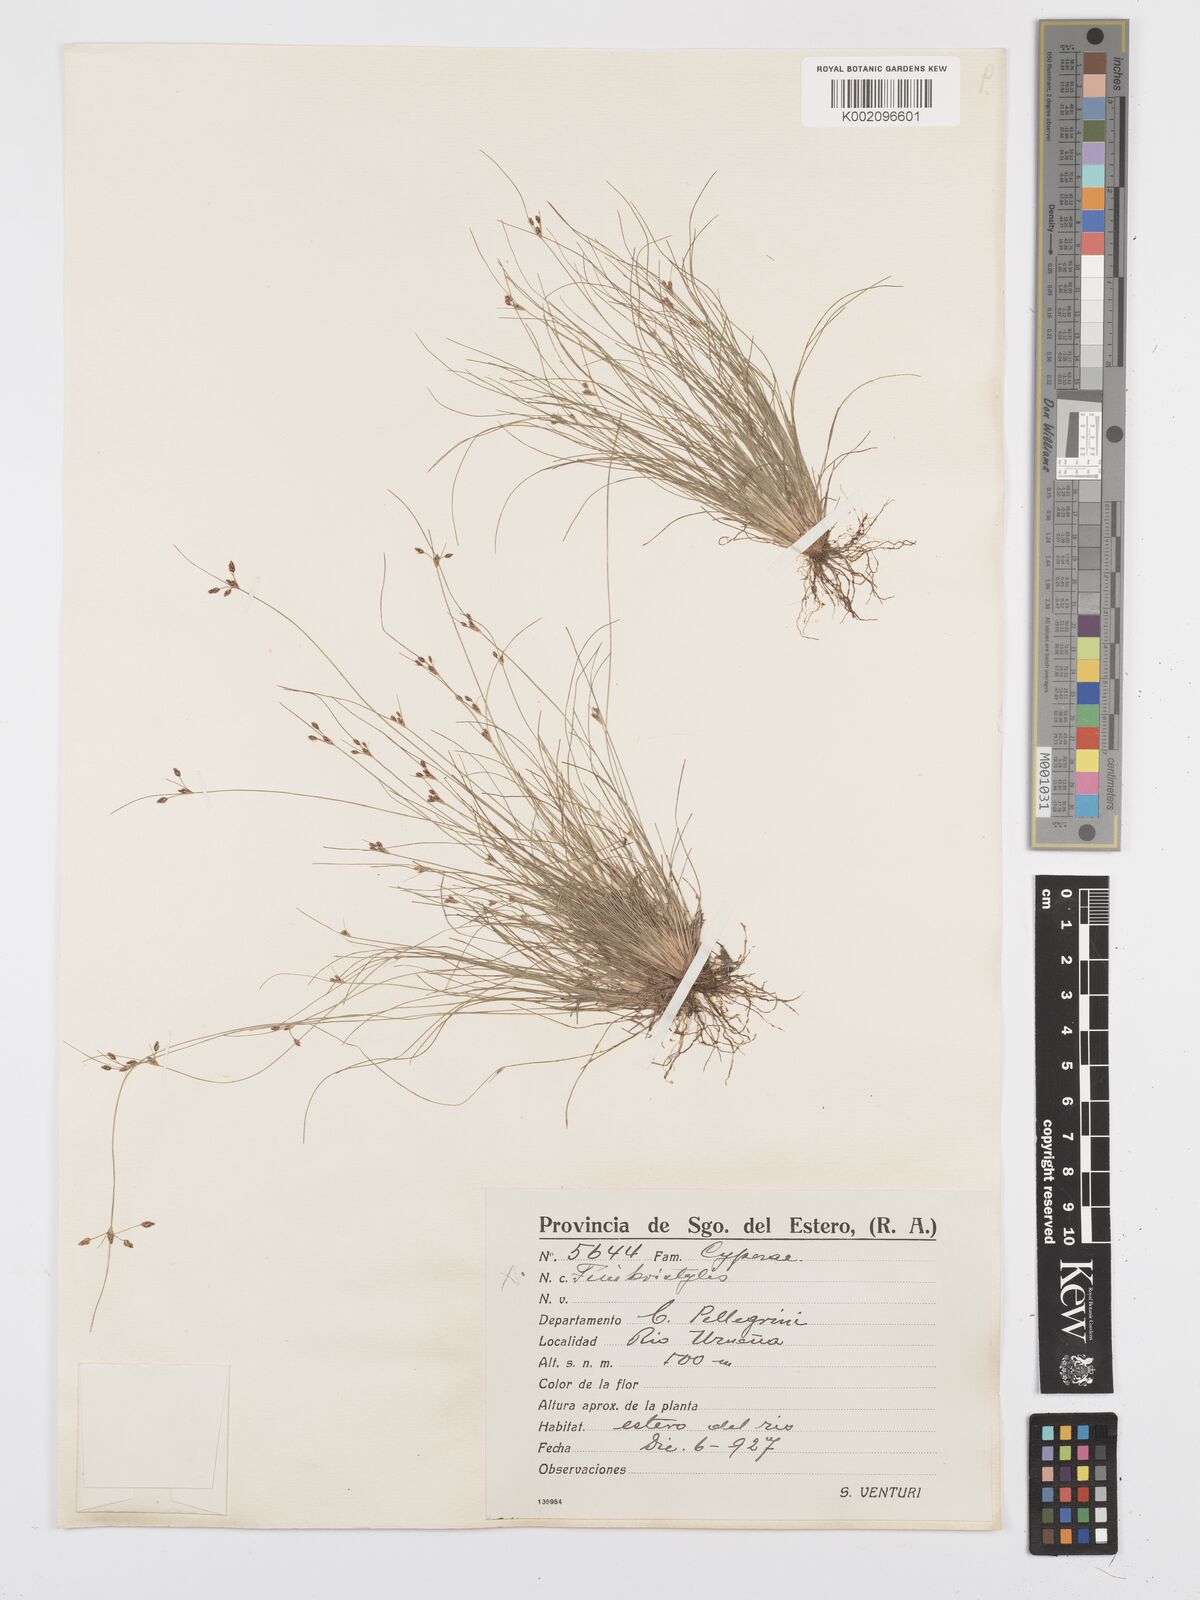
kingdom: Plantae
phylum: Tracheophyta
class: Liliopsida
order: Poales
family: Cyperaceae
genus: Bulbostylis
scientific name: Bulbostylis
